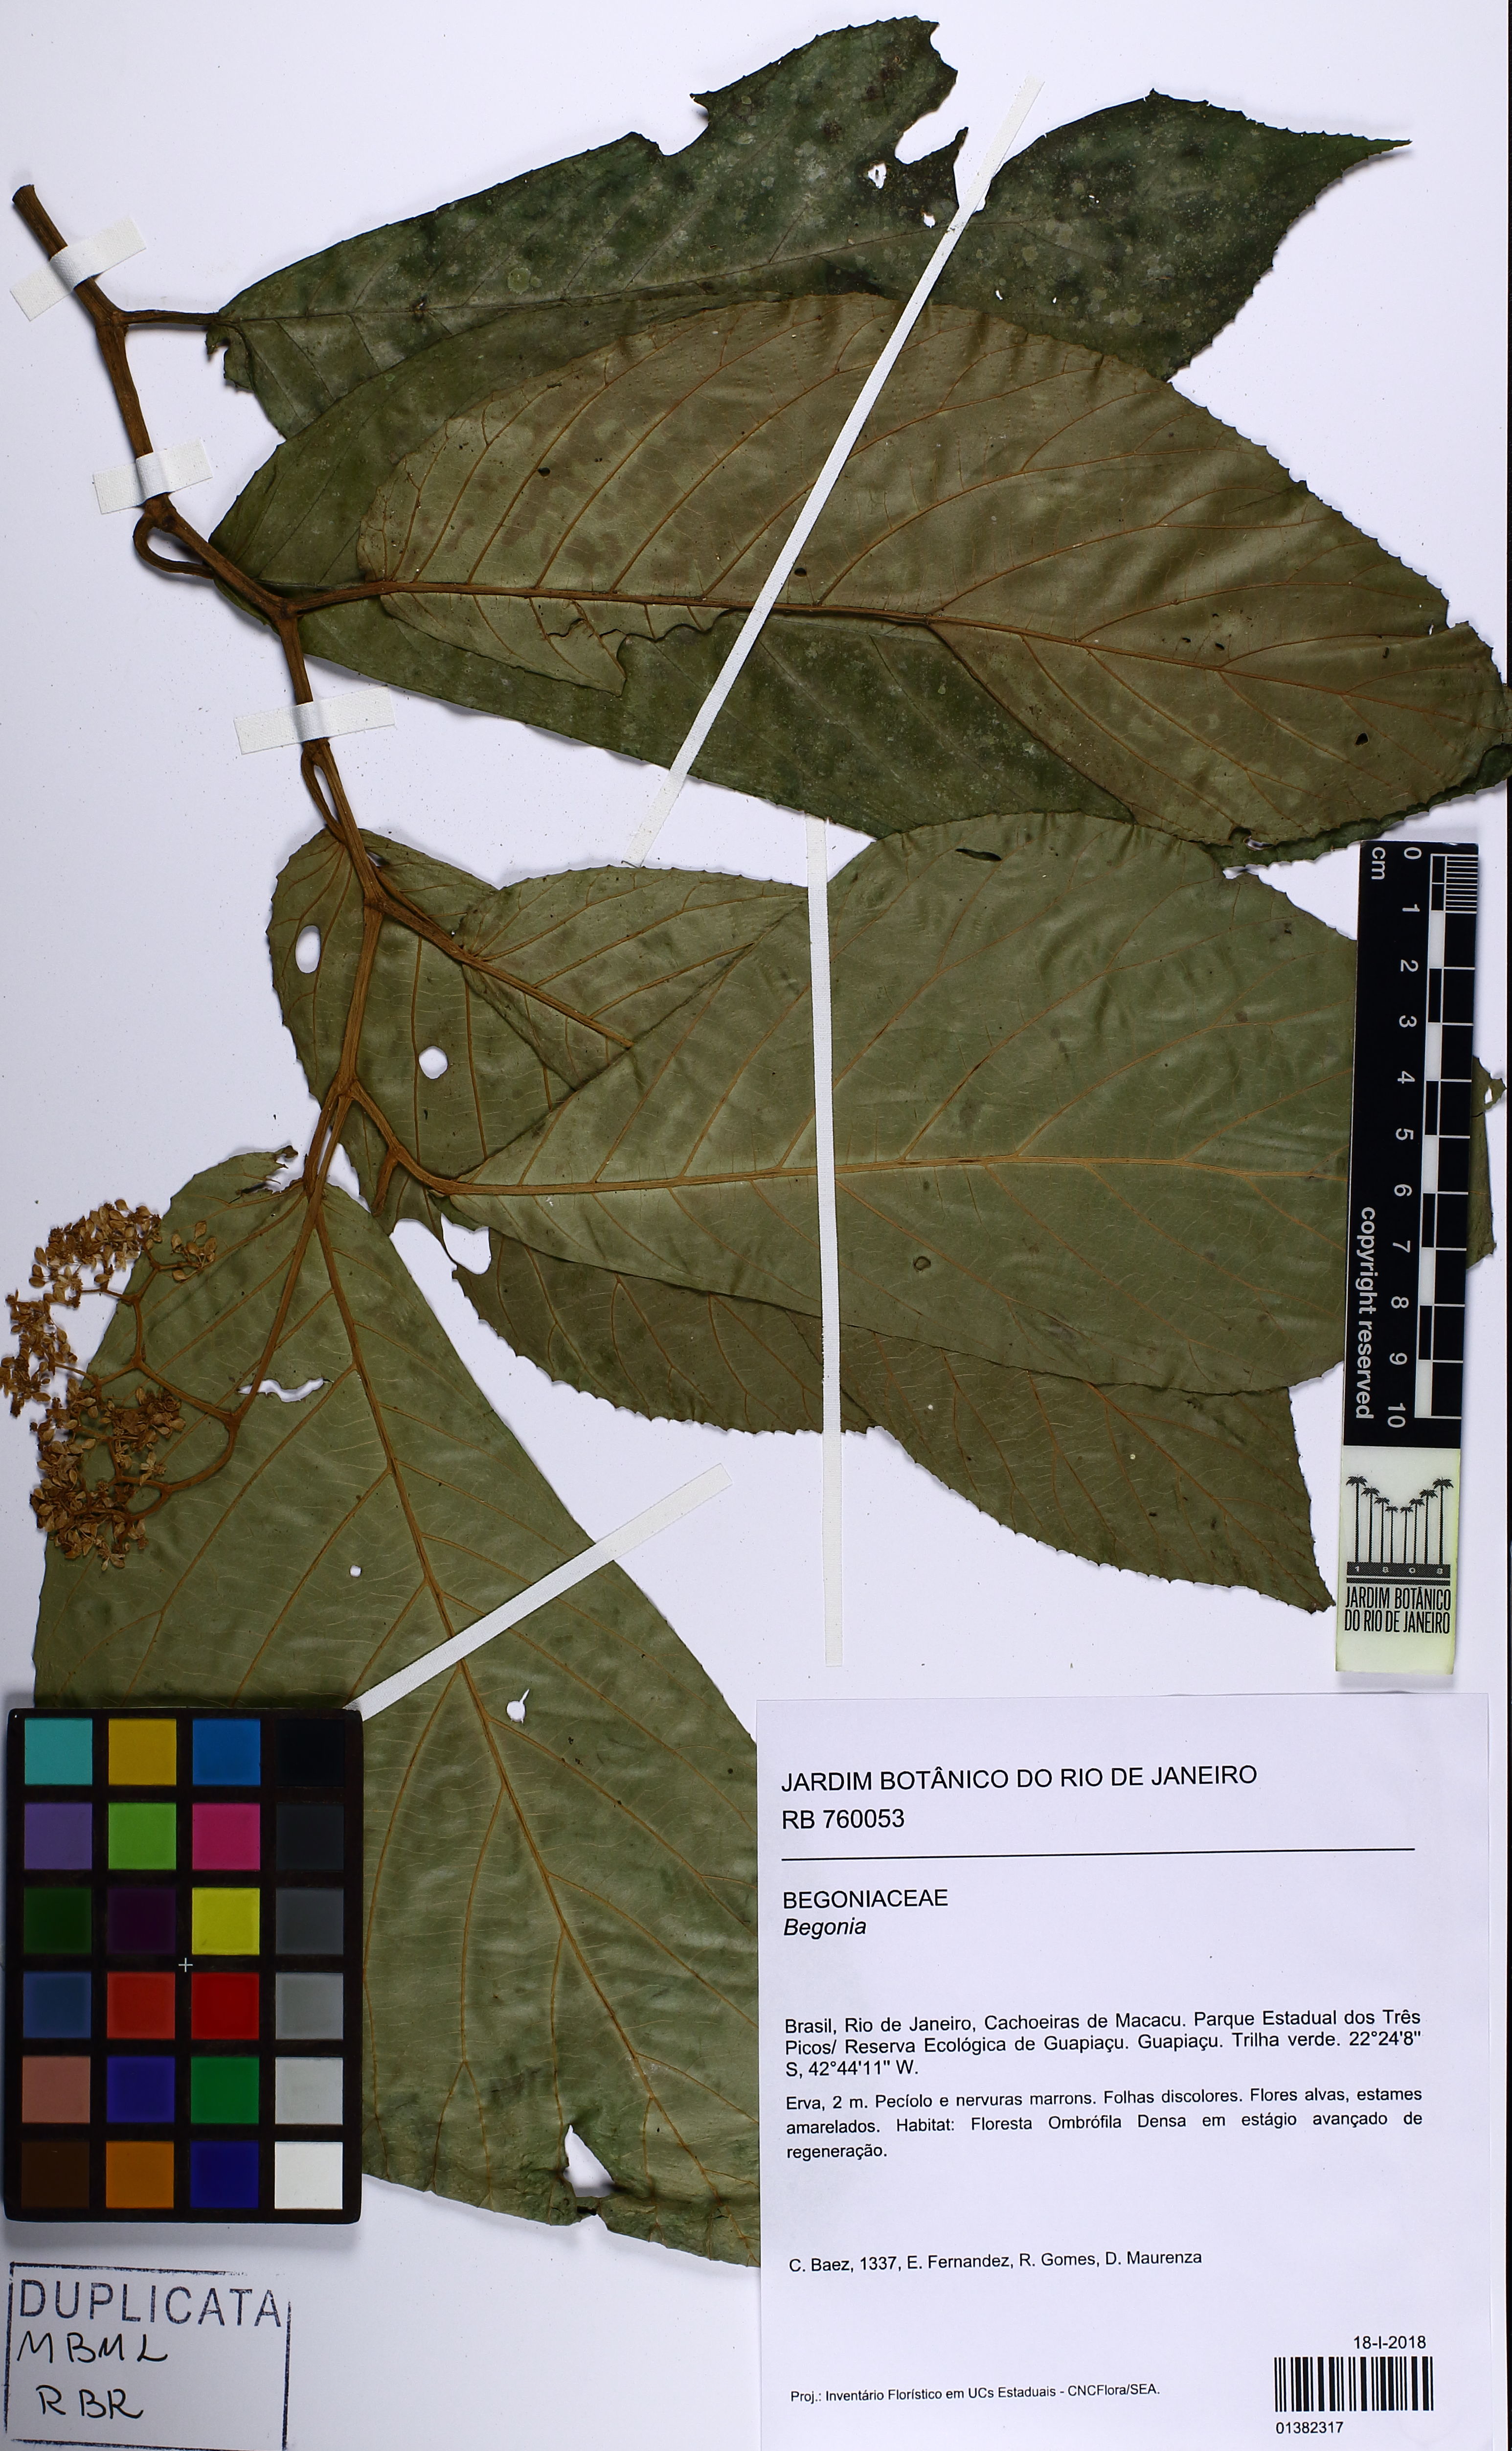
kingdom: Plantae
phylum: Tracheophyta
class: Magnoliopsida
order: Cucurbitales
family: Begoniaceae
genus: Begonia
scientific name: Begonia hookeriana
